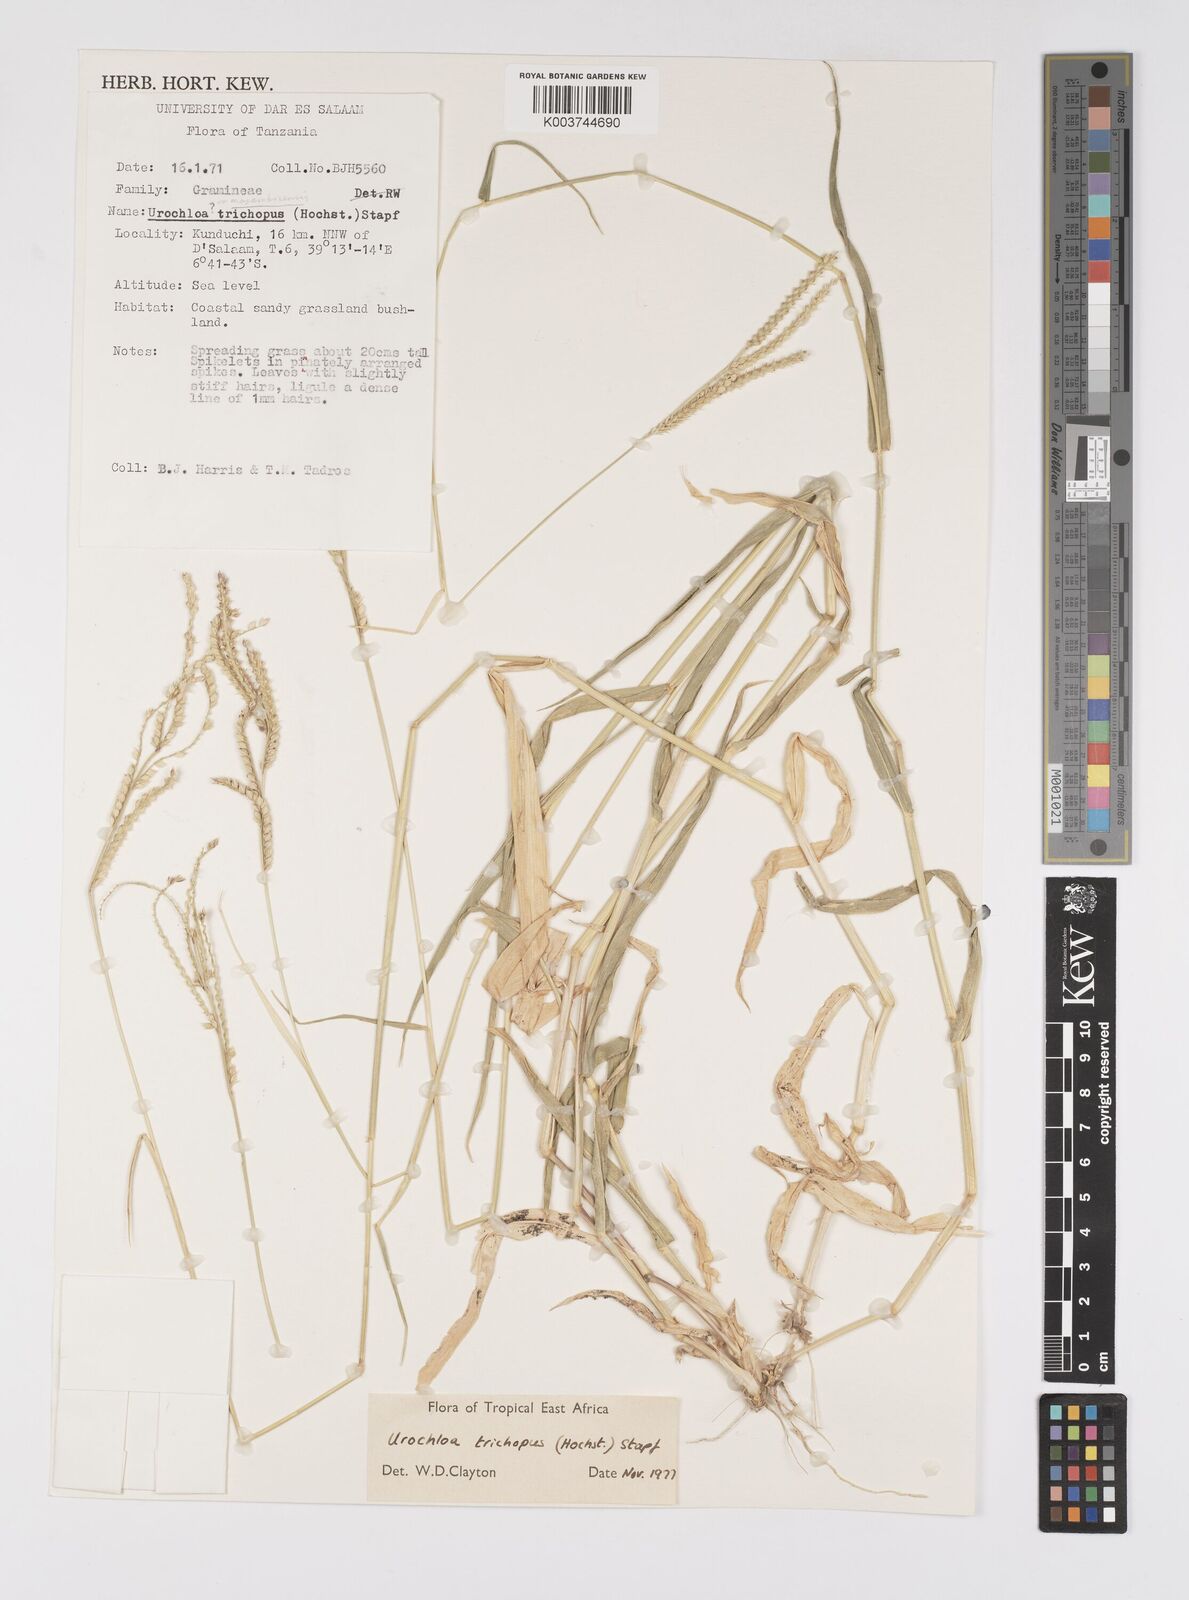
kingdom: Plantae
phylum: Tracheophyta
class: Liliopsida
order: Poales
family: Poaceae
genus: Urochloa
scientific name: Urochloa trichopus
